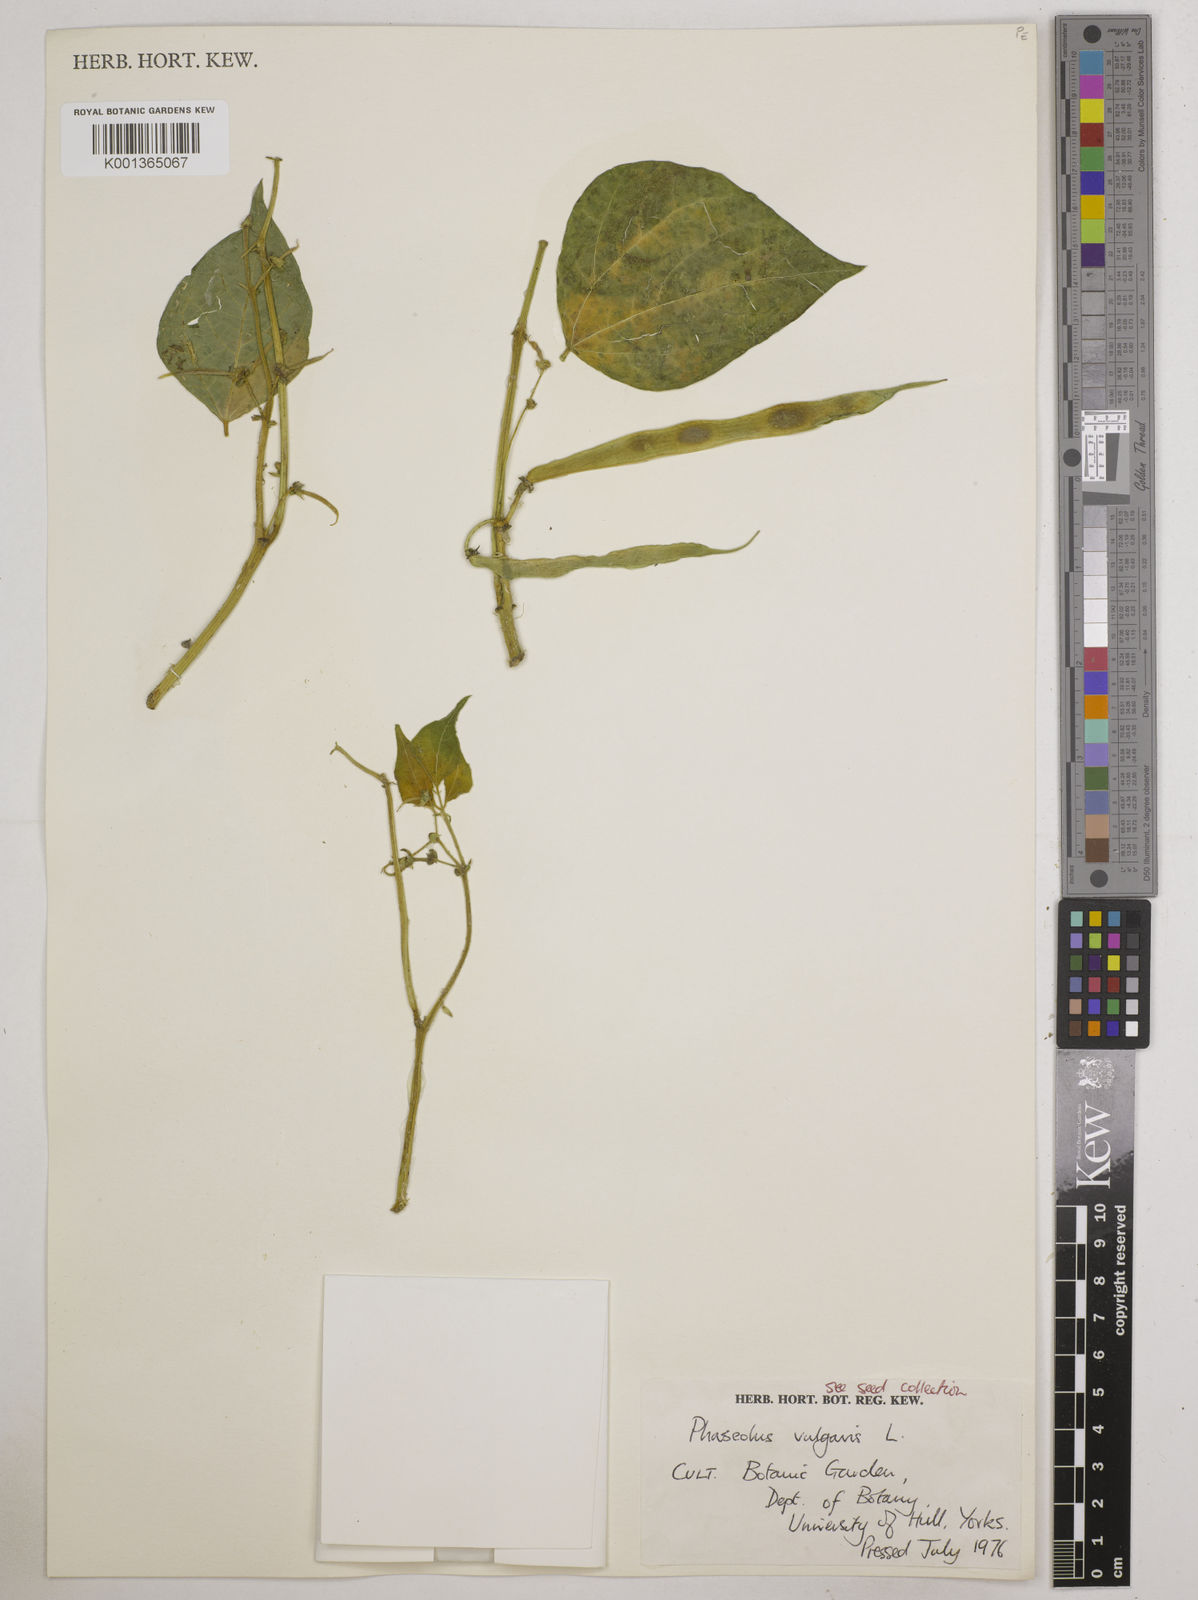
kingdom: Plantae
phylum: Tracheophyta
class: Magnoliopsida
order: Fabales
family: Fabaceae
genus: Phaseolus
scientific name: Phaseolus vulgaris
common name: Bean
